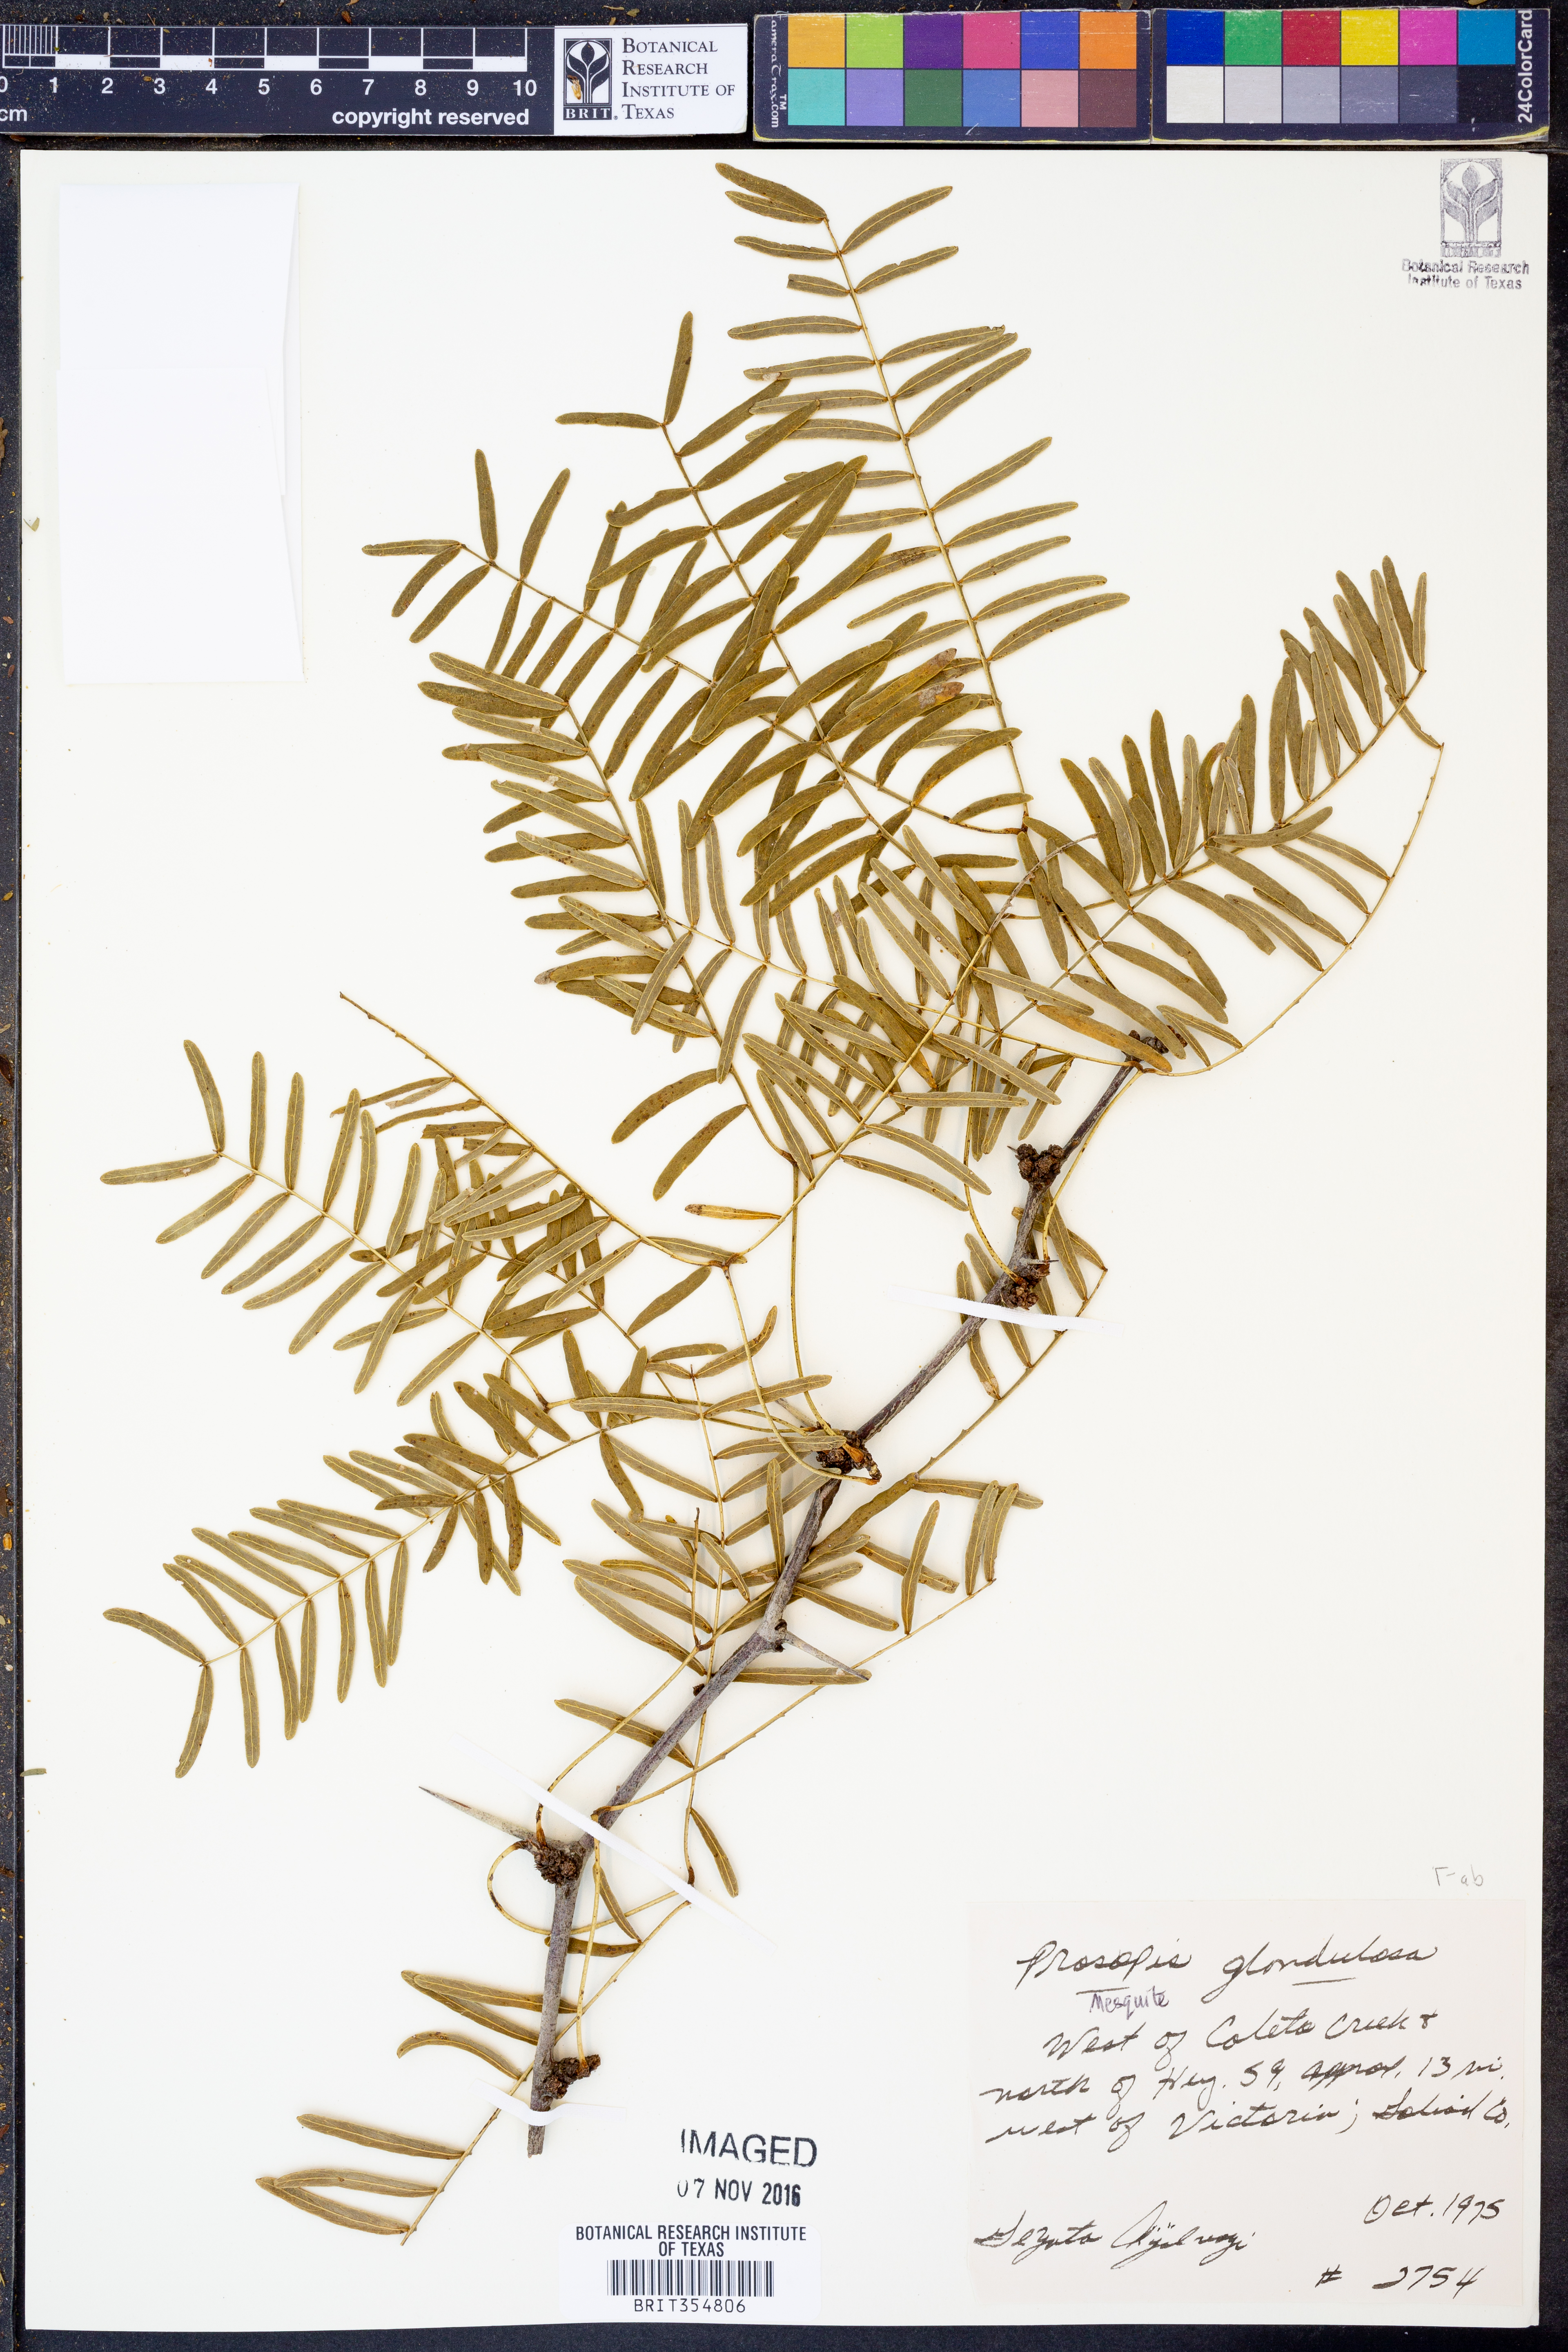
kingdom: Plantae
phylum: Tracheophyta
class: Magnoliopsida
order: Fabales
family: Fabaceae
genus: Prosopis
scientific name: Prosopis glandulosa
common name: Honey mesquite
